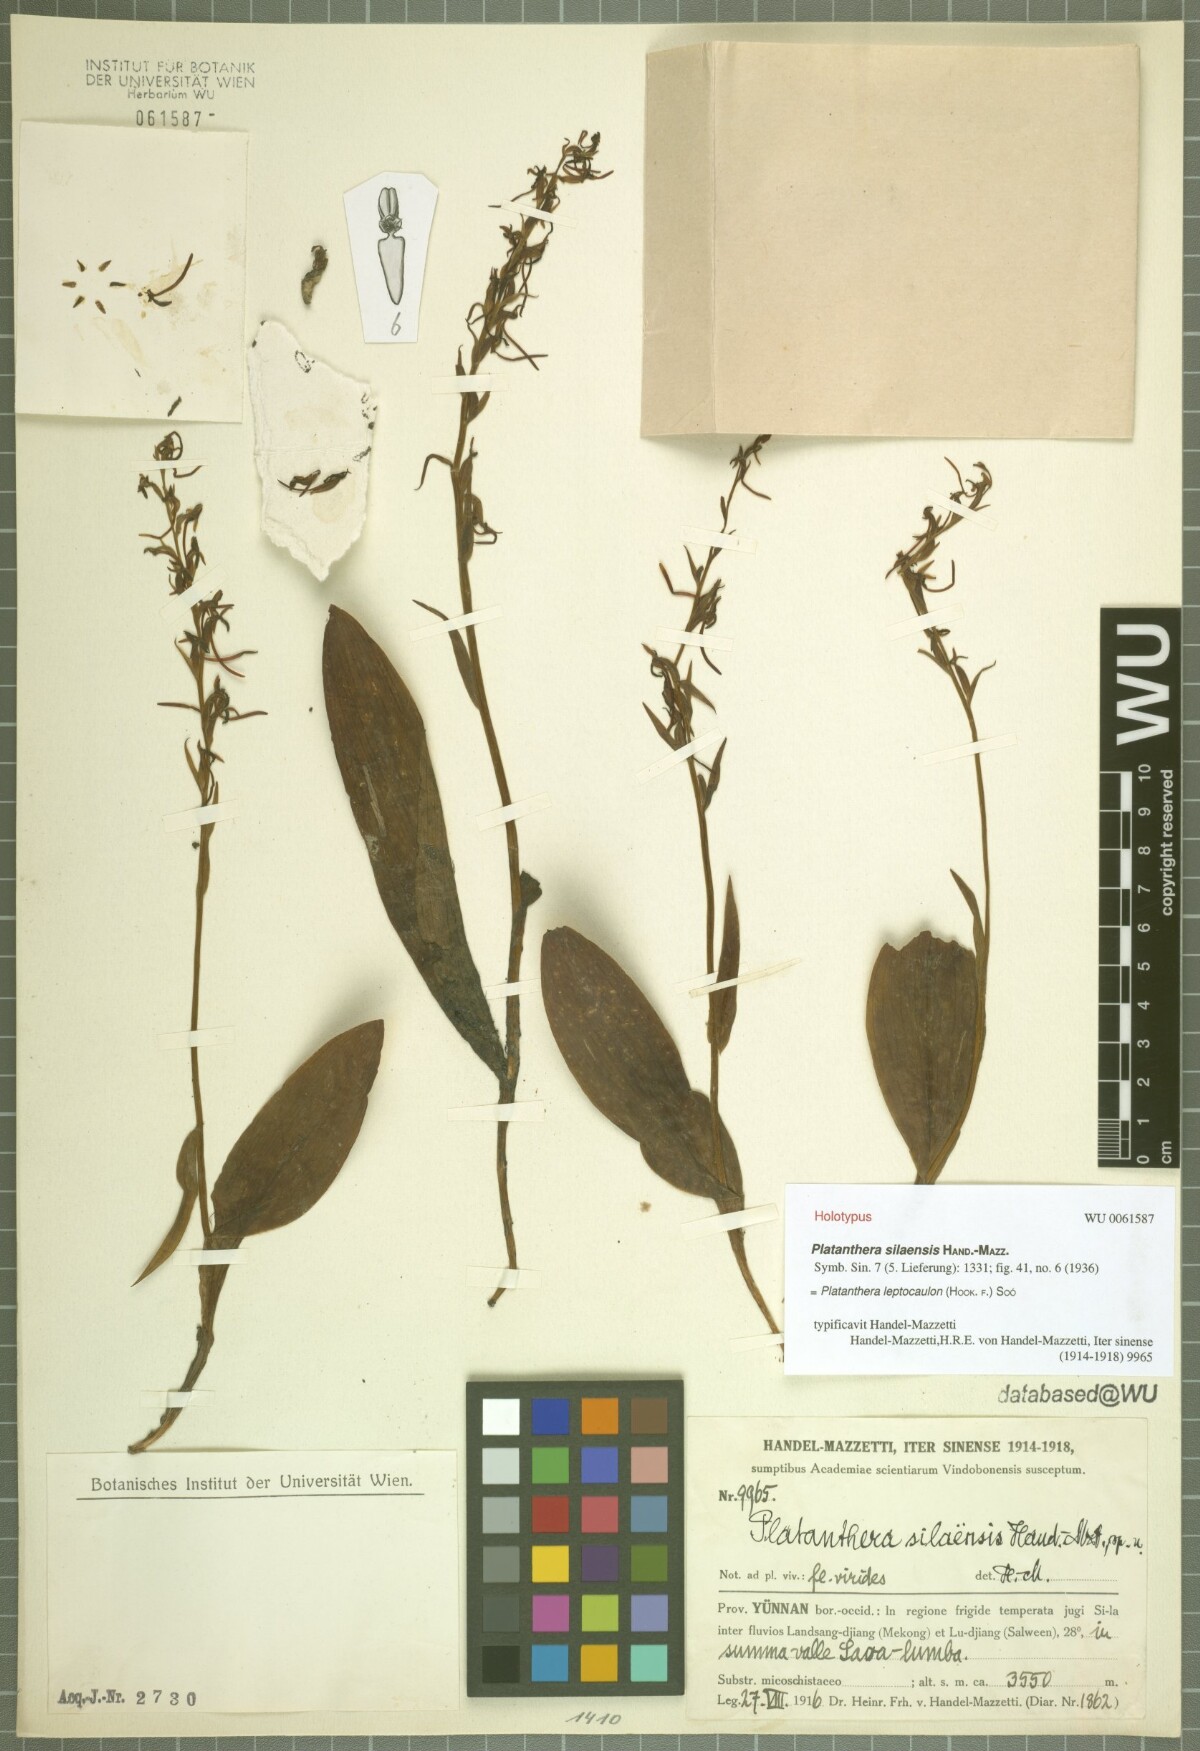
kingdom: Plantae
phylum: Tracheophyta
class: Liliopsida
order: Asparagales
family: Orchidaceae
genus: Platanthera
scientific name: Platanthera bakeriana
